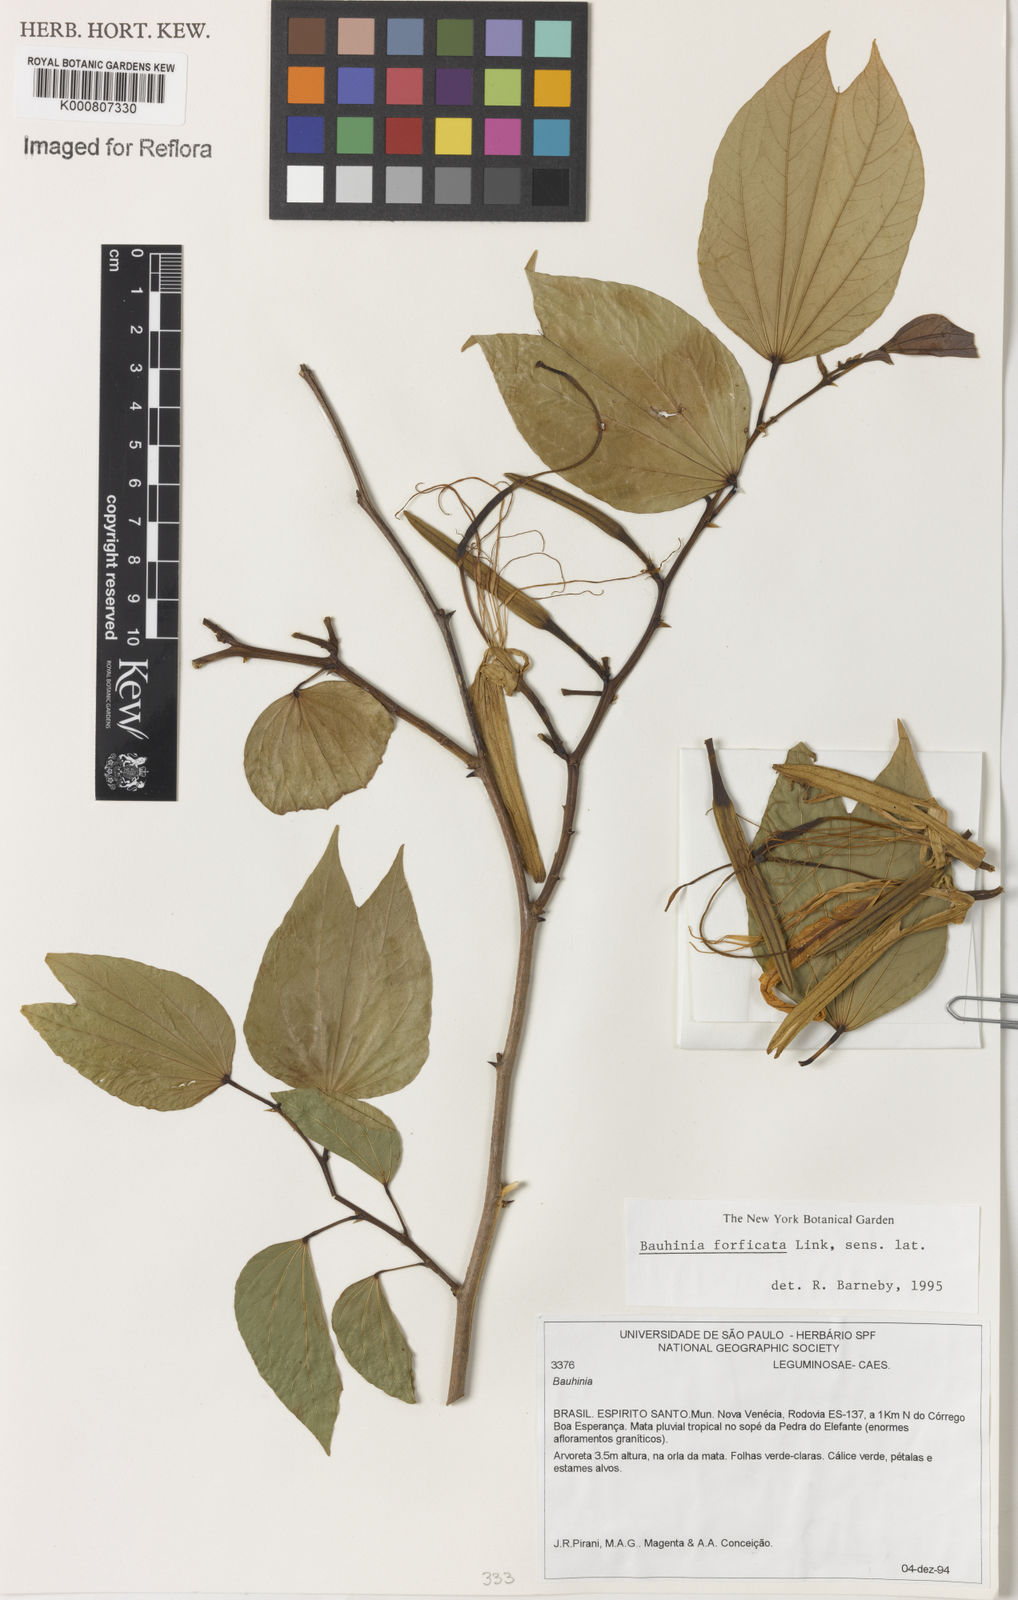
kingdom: Plantae
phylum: Tracheophyta
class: Magnoliopsida
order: Fabales
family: Fabaceae
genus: Bauhinia
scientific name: Bauhinia forficata
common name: Orchid tree
